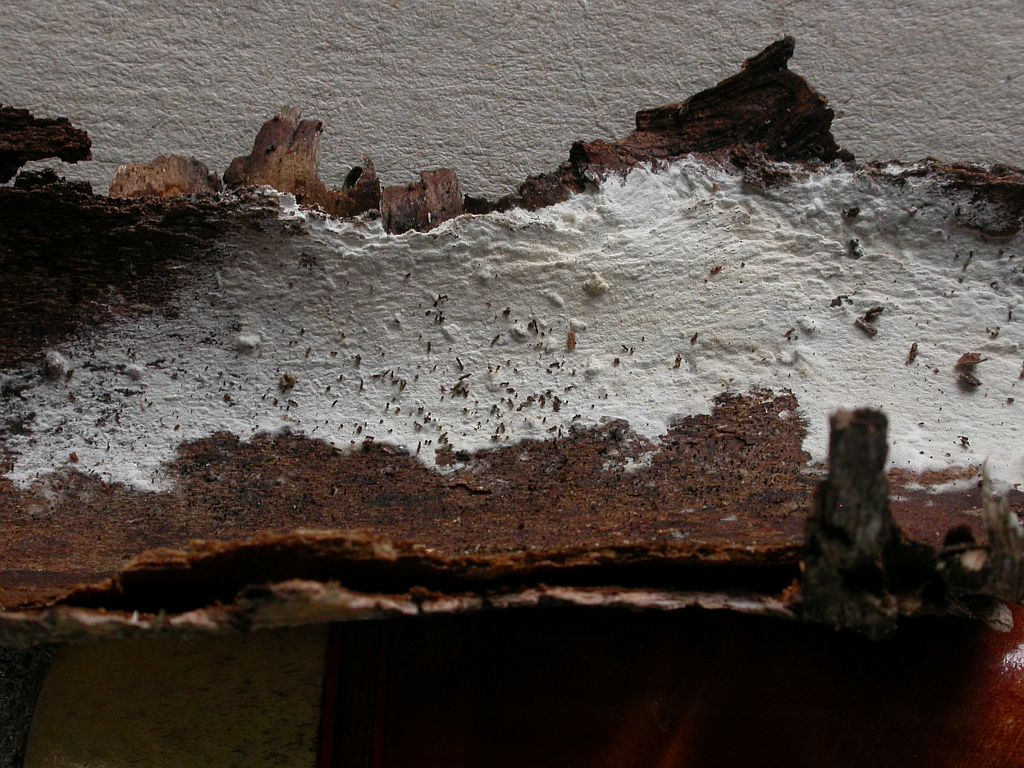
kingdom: Fungi
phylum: Basidiomycota
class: Agaricomycetes
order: Polyporales
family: Hyphodermataceae
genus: Hyphoderma
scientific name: Hyphoderma setigerum
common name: håret kalkskind
